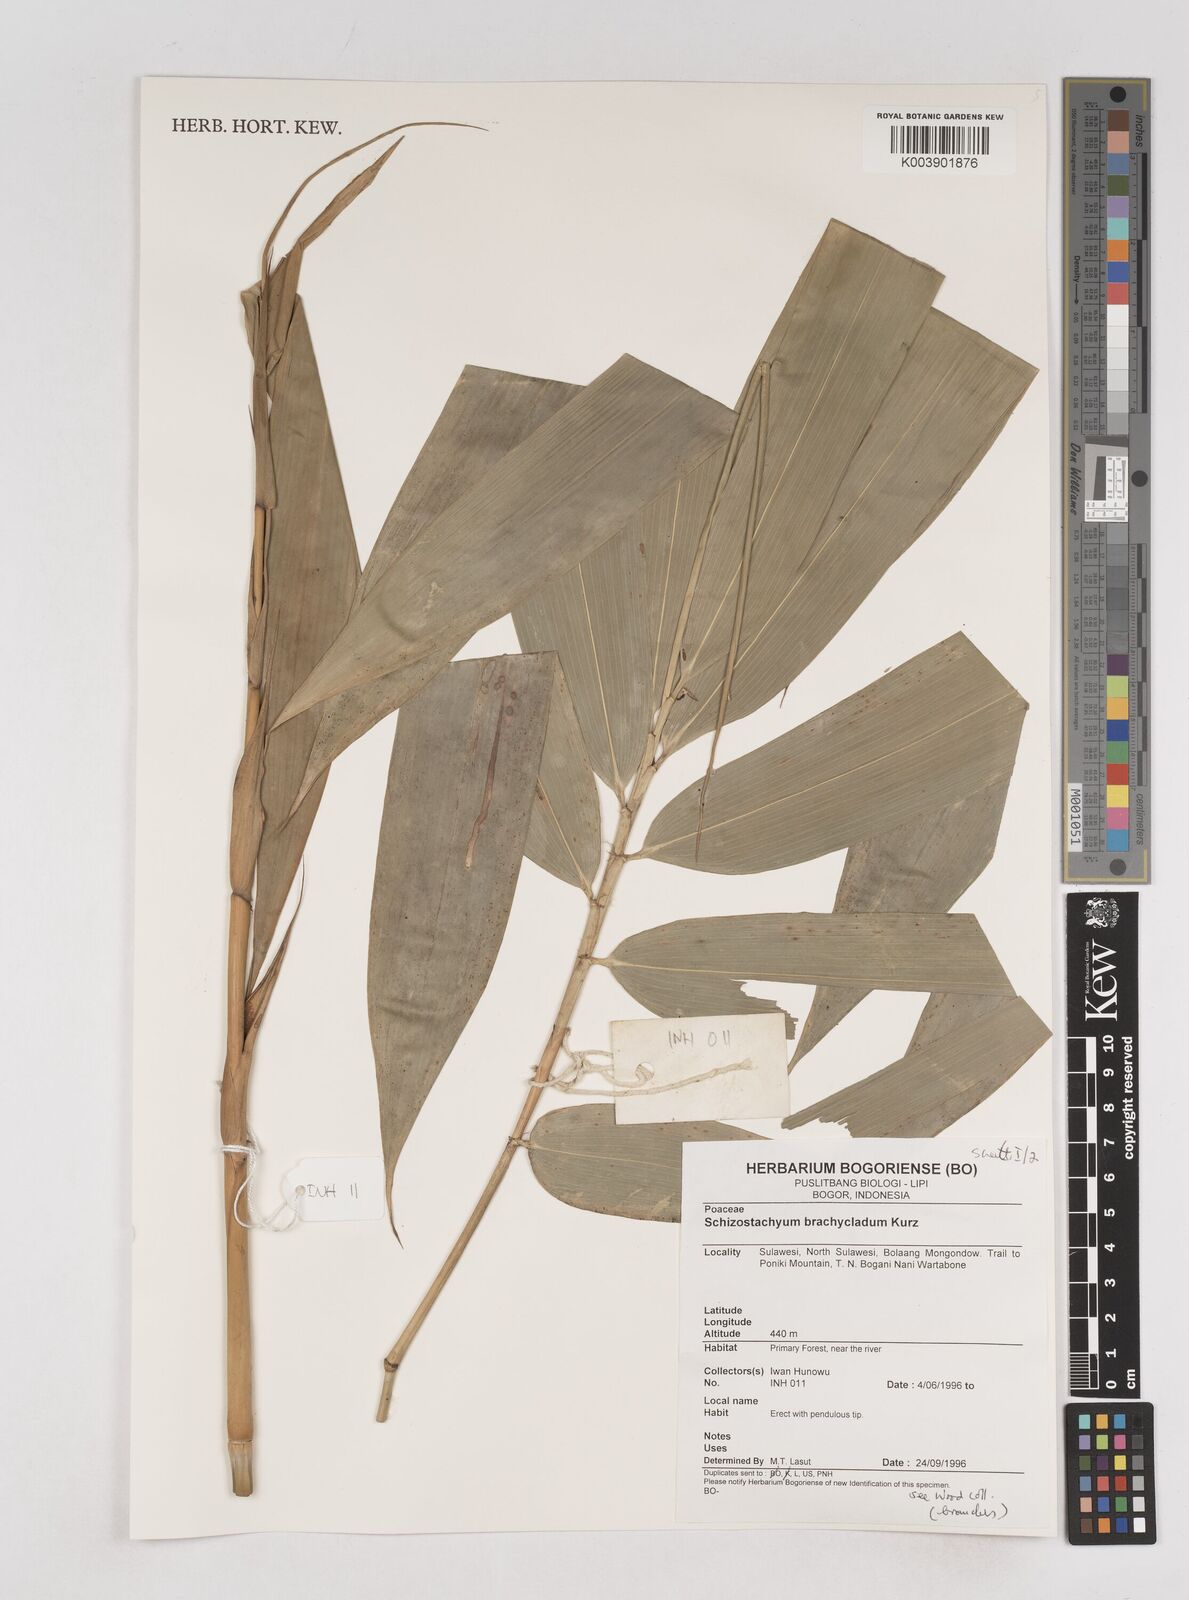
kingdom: Plantae
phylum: Tracheophyta
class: Liliopsida
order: Poales
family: Poaceae
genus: Schizostachyum
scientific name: Schizostachyum brachycladum
